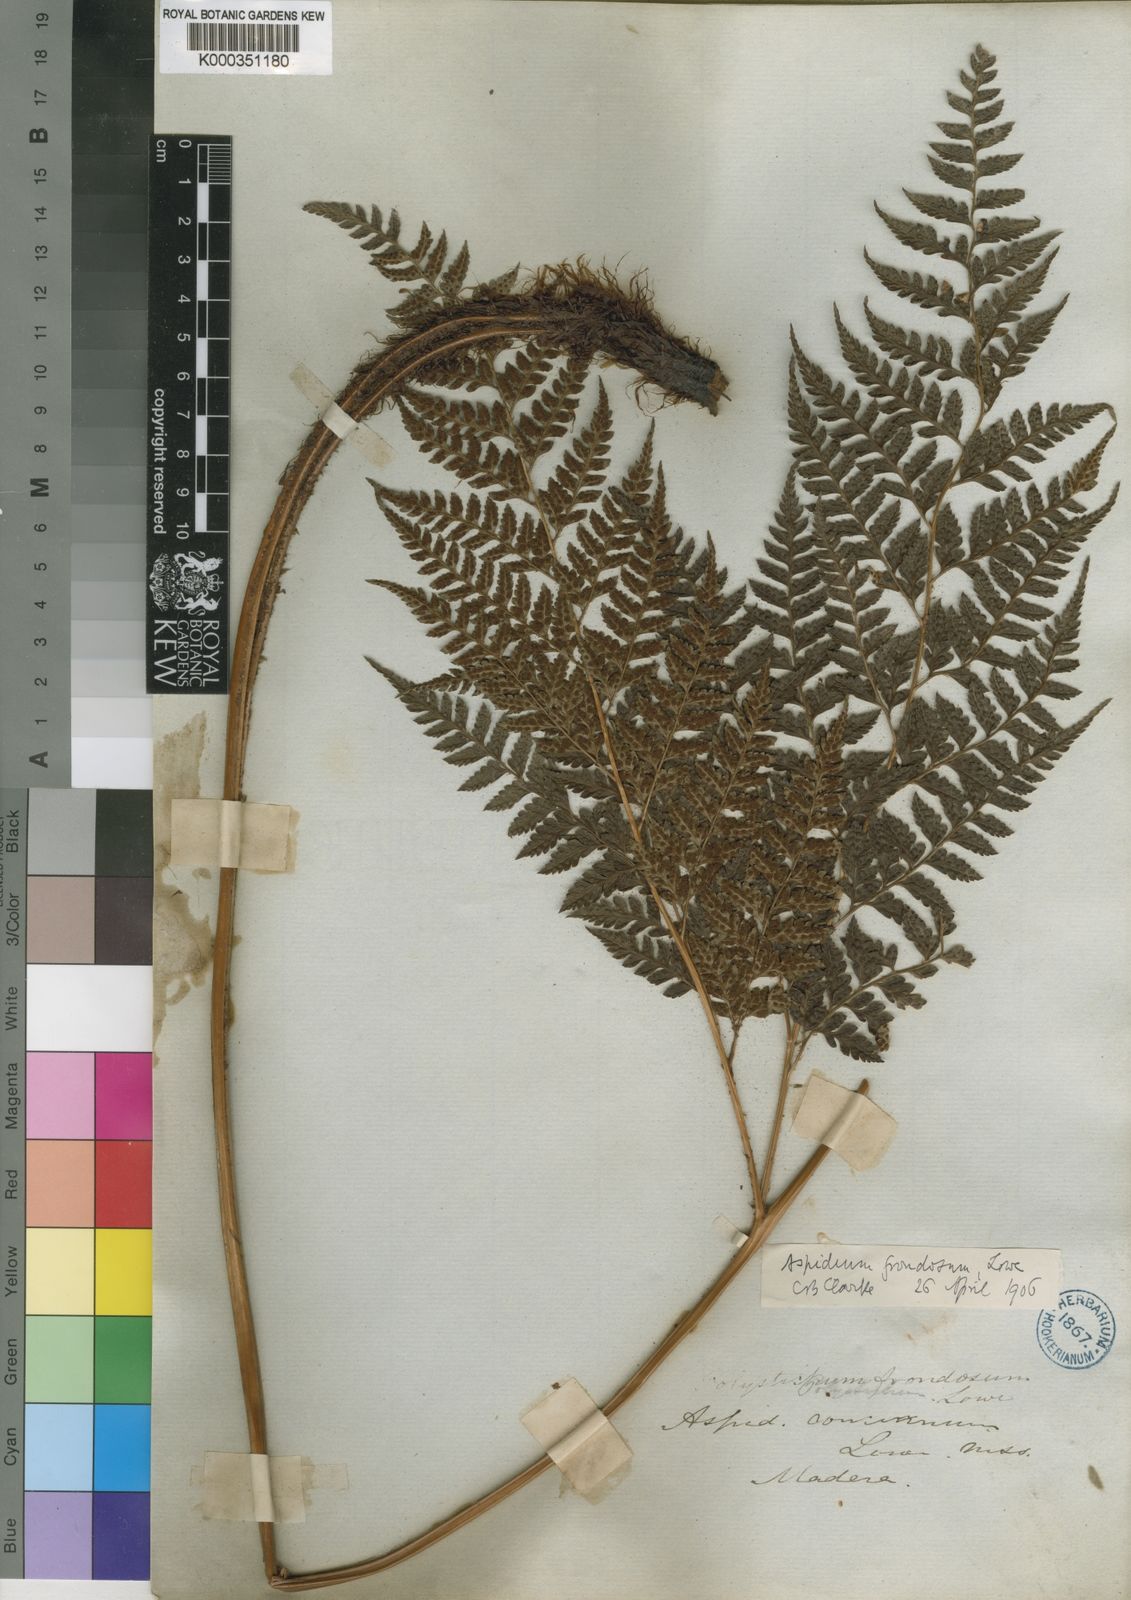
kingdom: Plantae
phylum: Tracheophyta
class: Polypodiopsida
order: Polypodiales
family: Dryopteridaceae
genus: Arachniodes
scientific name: Arachniodes webbiana
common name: Madeira holly fern
